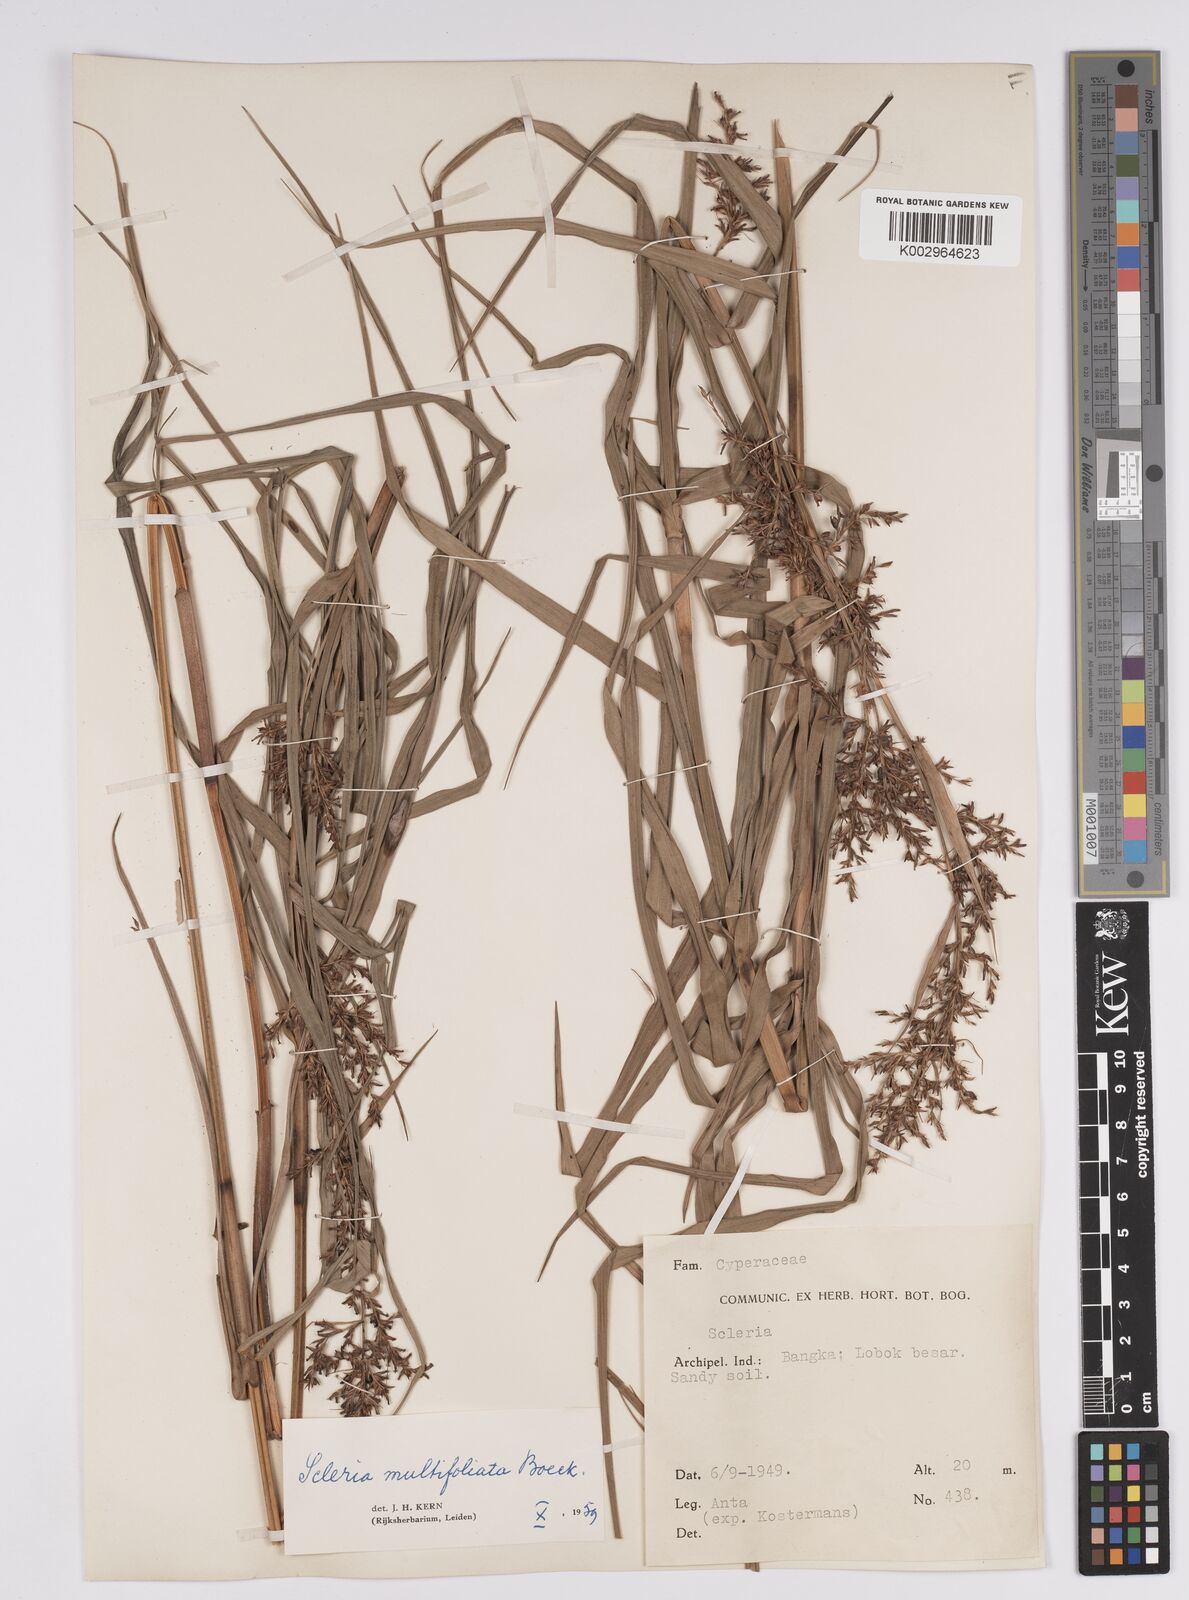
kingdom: Plantae
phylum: Tracheophyta
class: Liliopsida
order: Poales
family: Cyperaceae
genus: Scleria
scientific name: Scleria purpurascens
